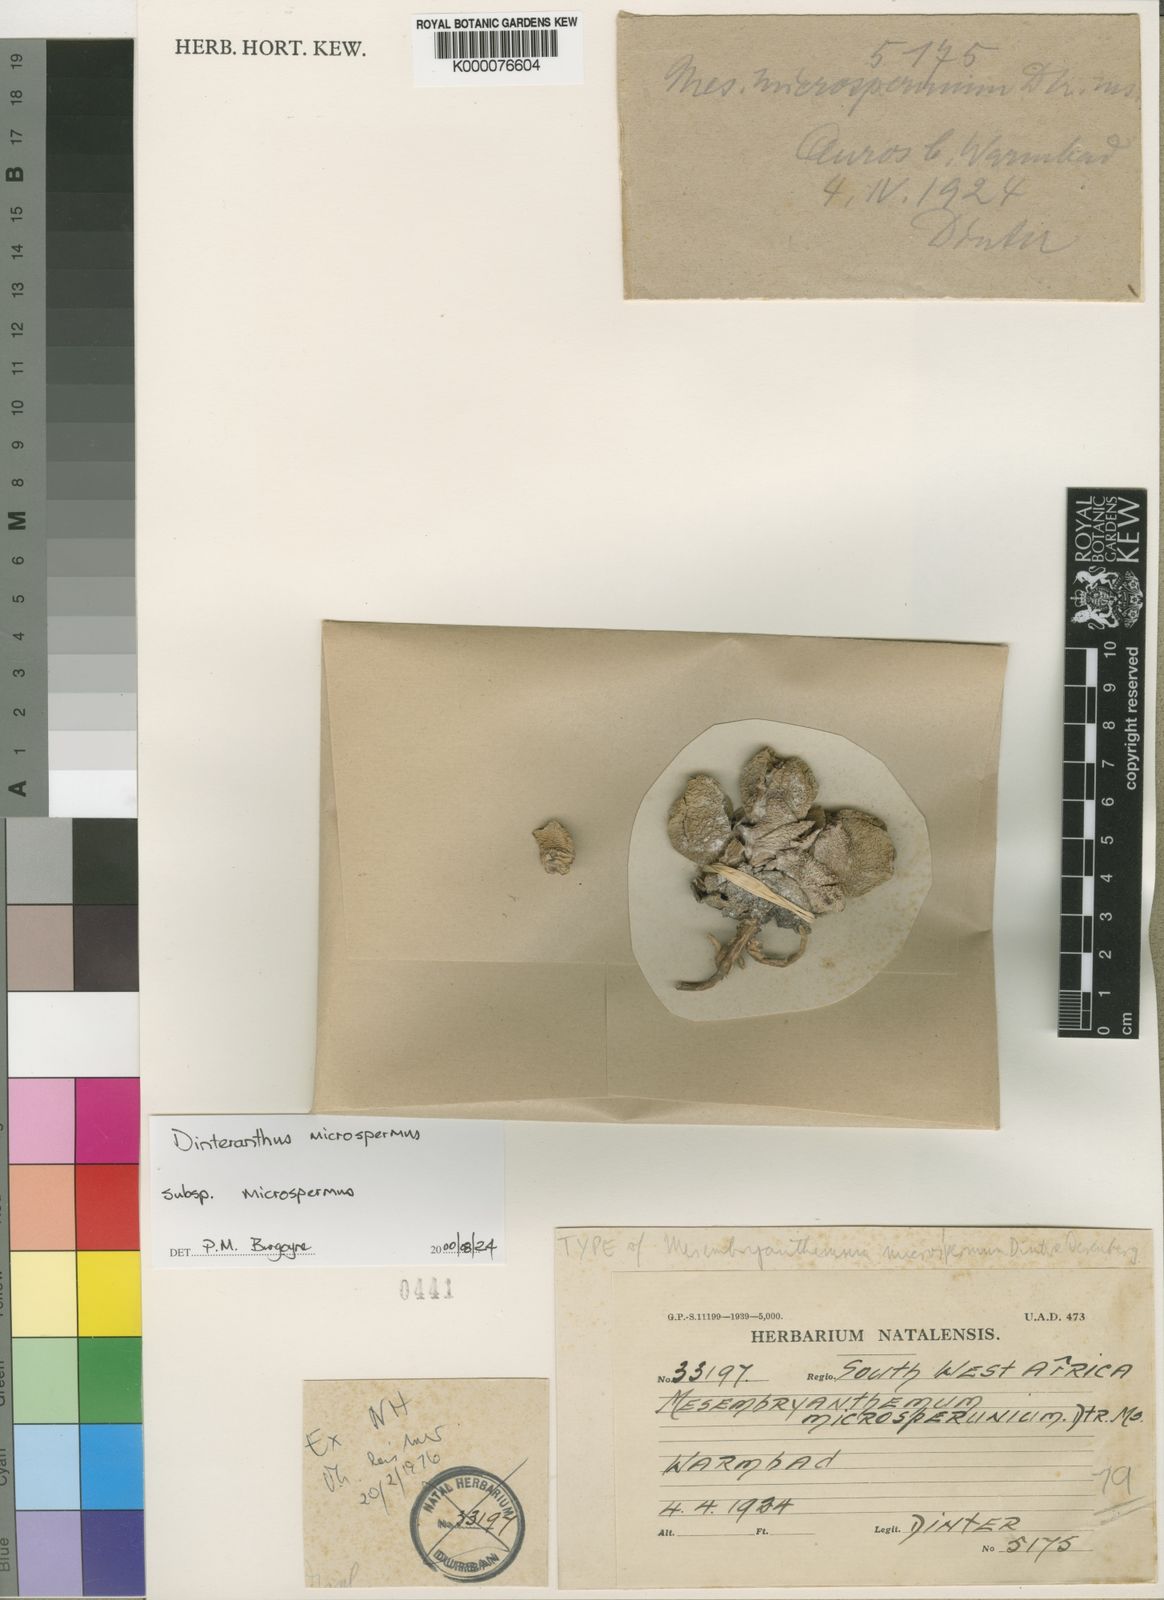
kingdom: Plantae
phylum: Tracheophyta
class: Magnoliopsida
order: Caryophyllales
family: Aizoaceae
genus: Dinteranthus
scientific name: Dinteranthus microspermus
